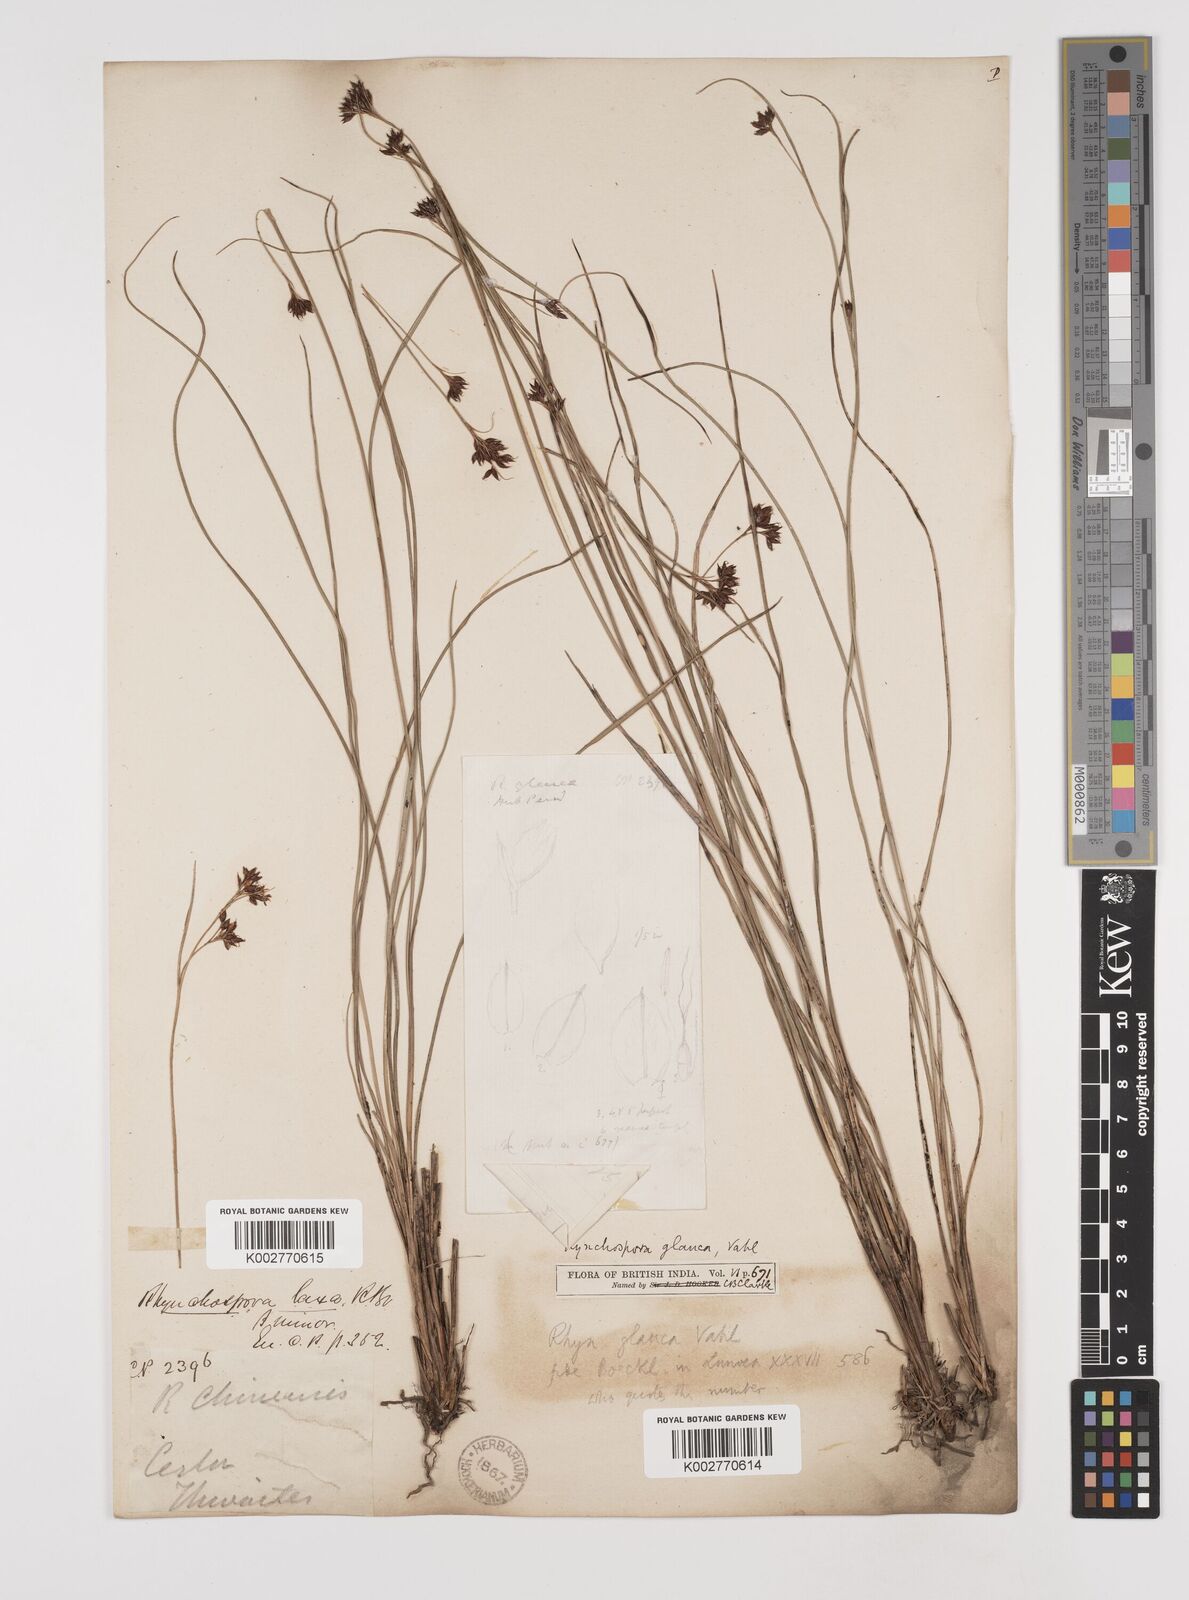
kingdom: Plantae
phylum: Tracheophyta
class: Liliopsida
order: Poales
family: Cyperaceae
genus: Rhynchospora
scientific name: Rhynchospora chinensis
